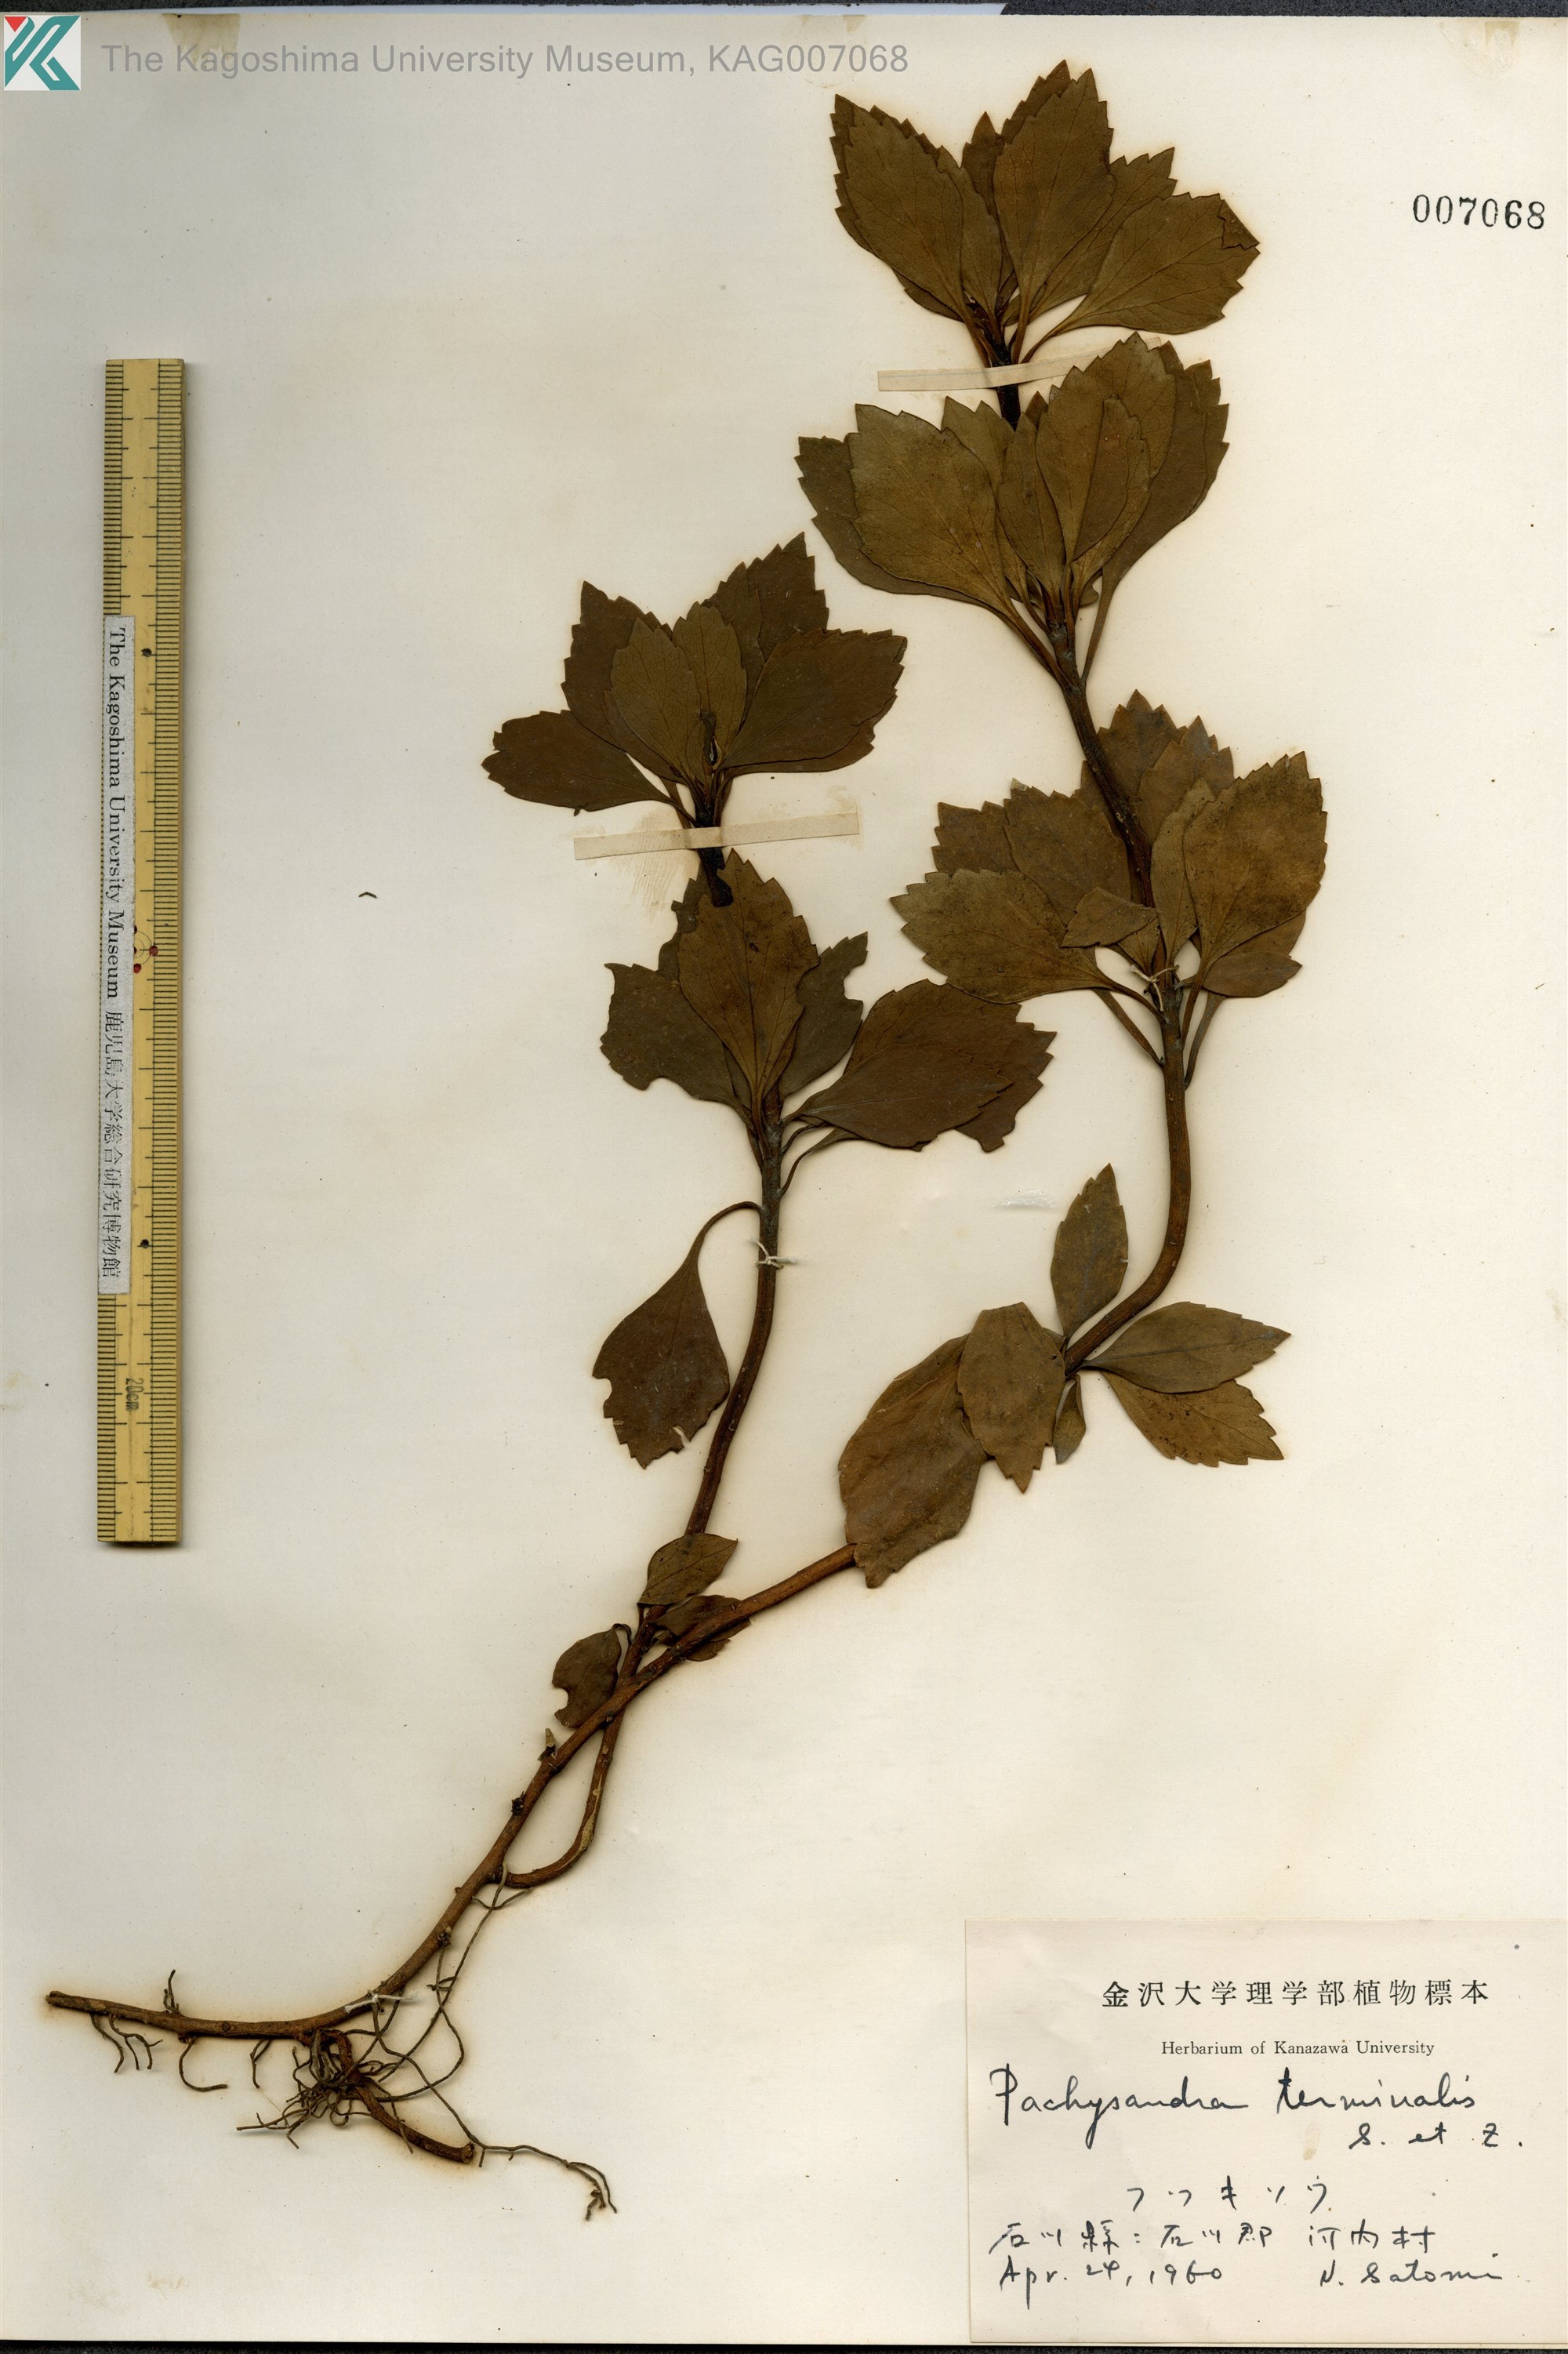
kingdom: Plantae
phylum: Tracheophyta
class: Magnoliopsida
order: Buxales
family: Buxaceae
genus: Pachysandra
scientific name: Pachysandra terminalis
